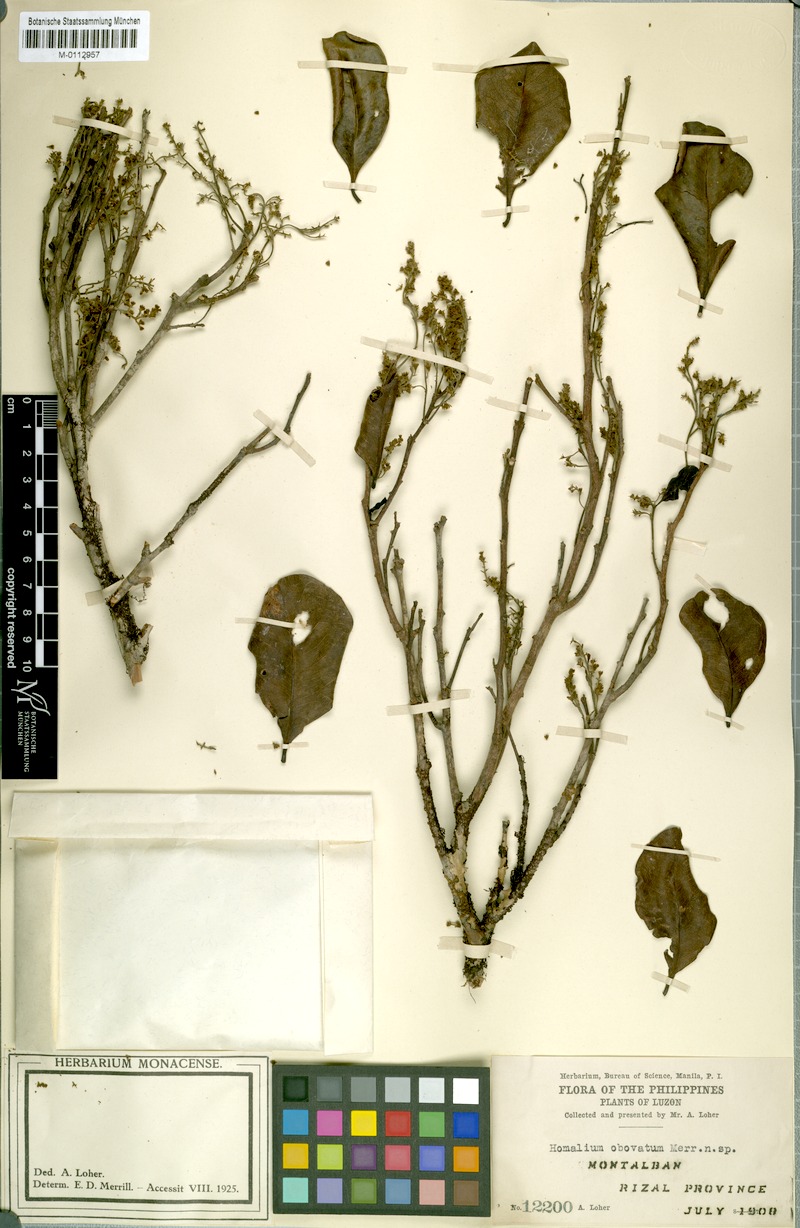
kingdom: Plantae
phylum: Tracheophyta
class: Magnoliopsida
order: Malpighiales
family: Salicaceae
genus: Homalium
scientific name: Homalium panayanum
